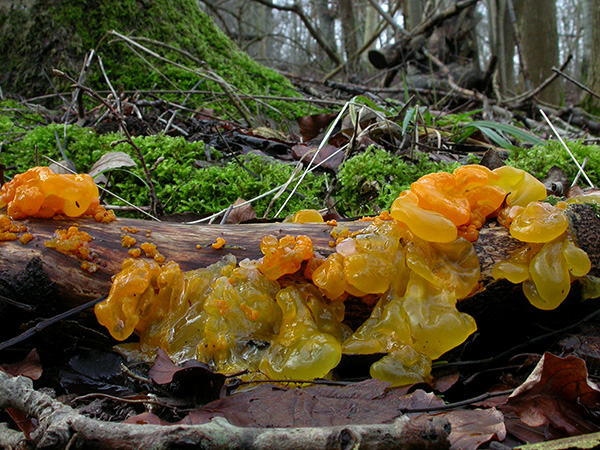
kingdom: Fungi
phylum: Basidiomycota
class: Tremellomycetes
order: Tremellales
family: Tremellaceae
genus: Tremella
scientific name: Tremella mesenterica
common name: gul bævresvamp
